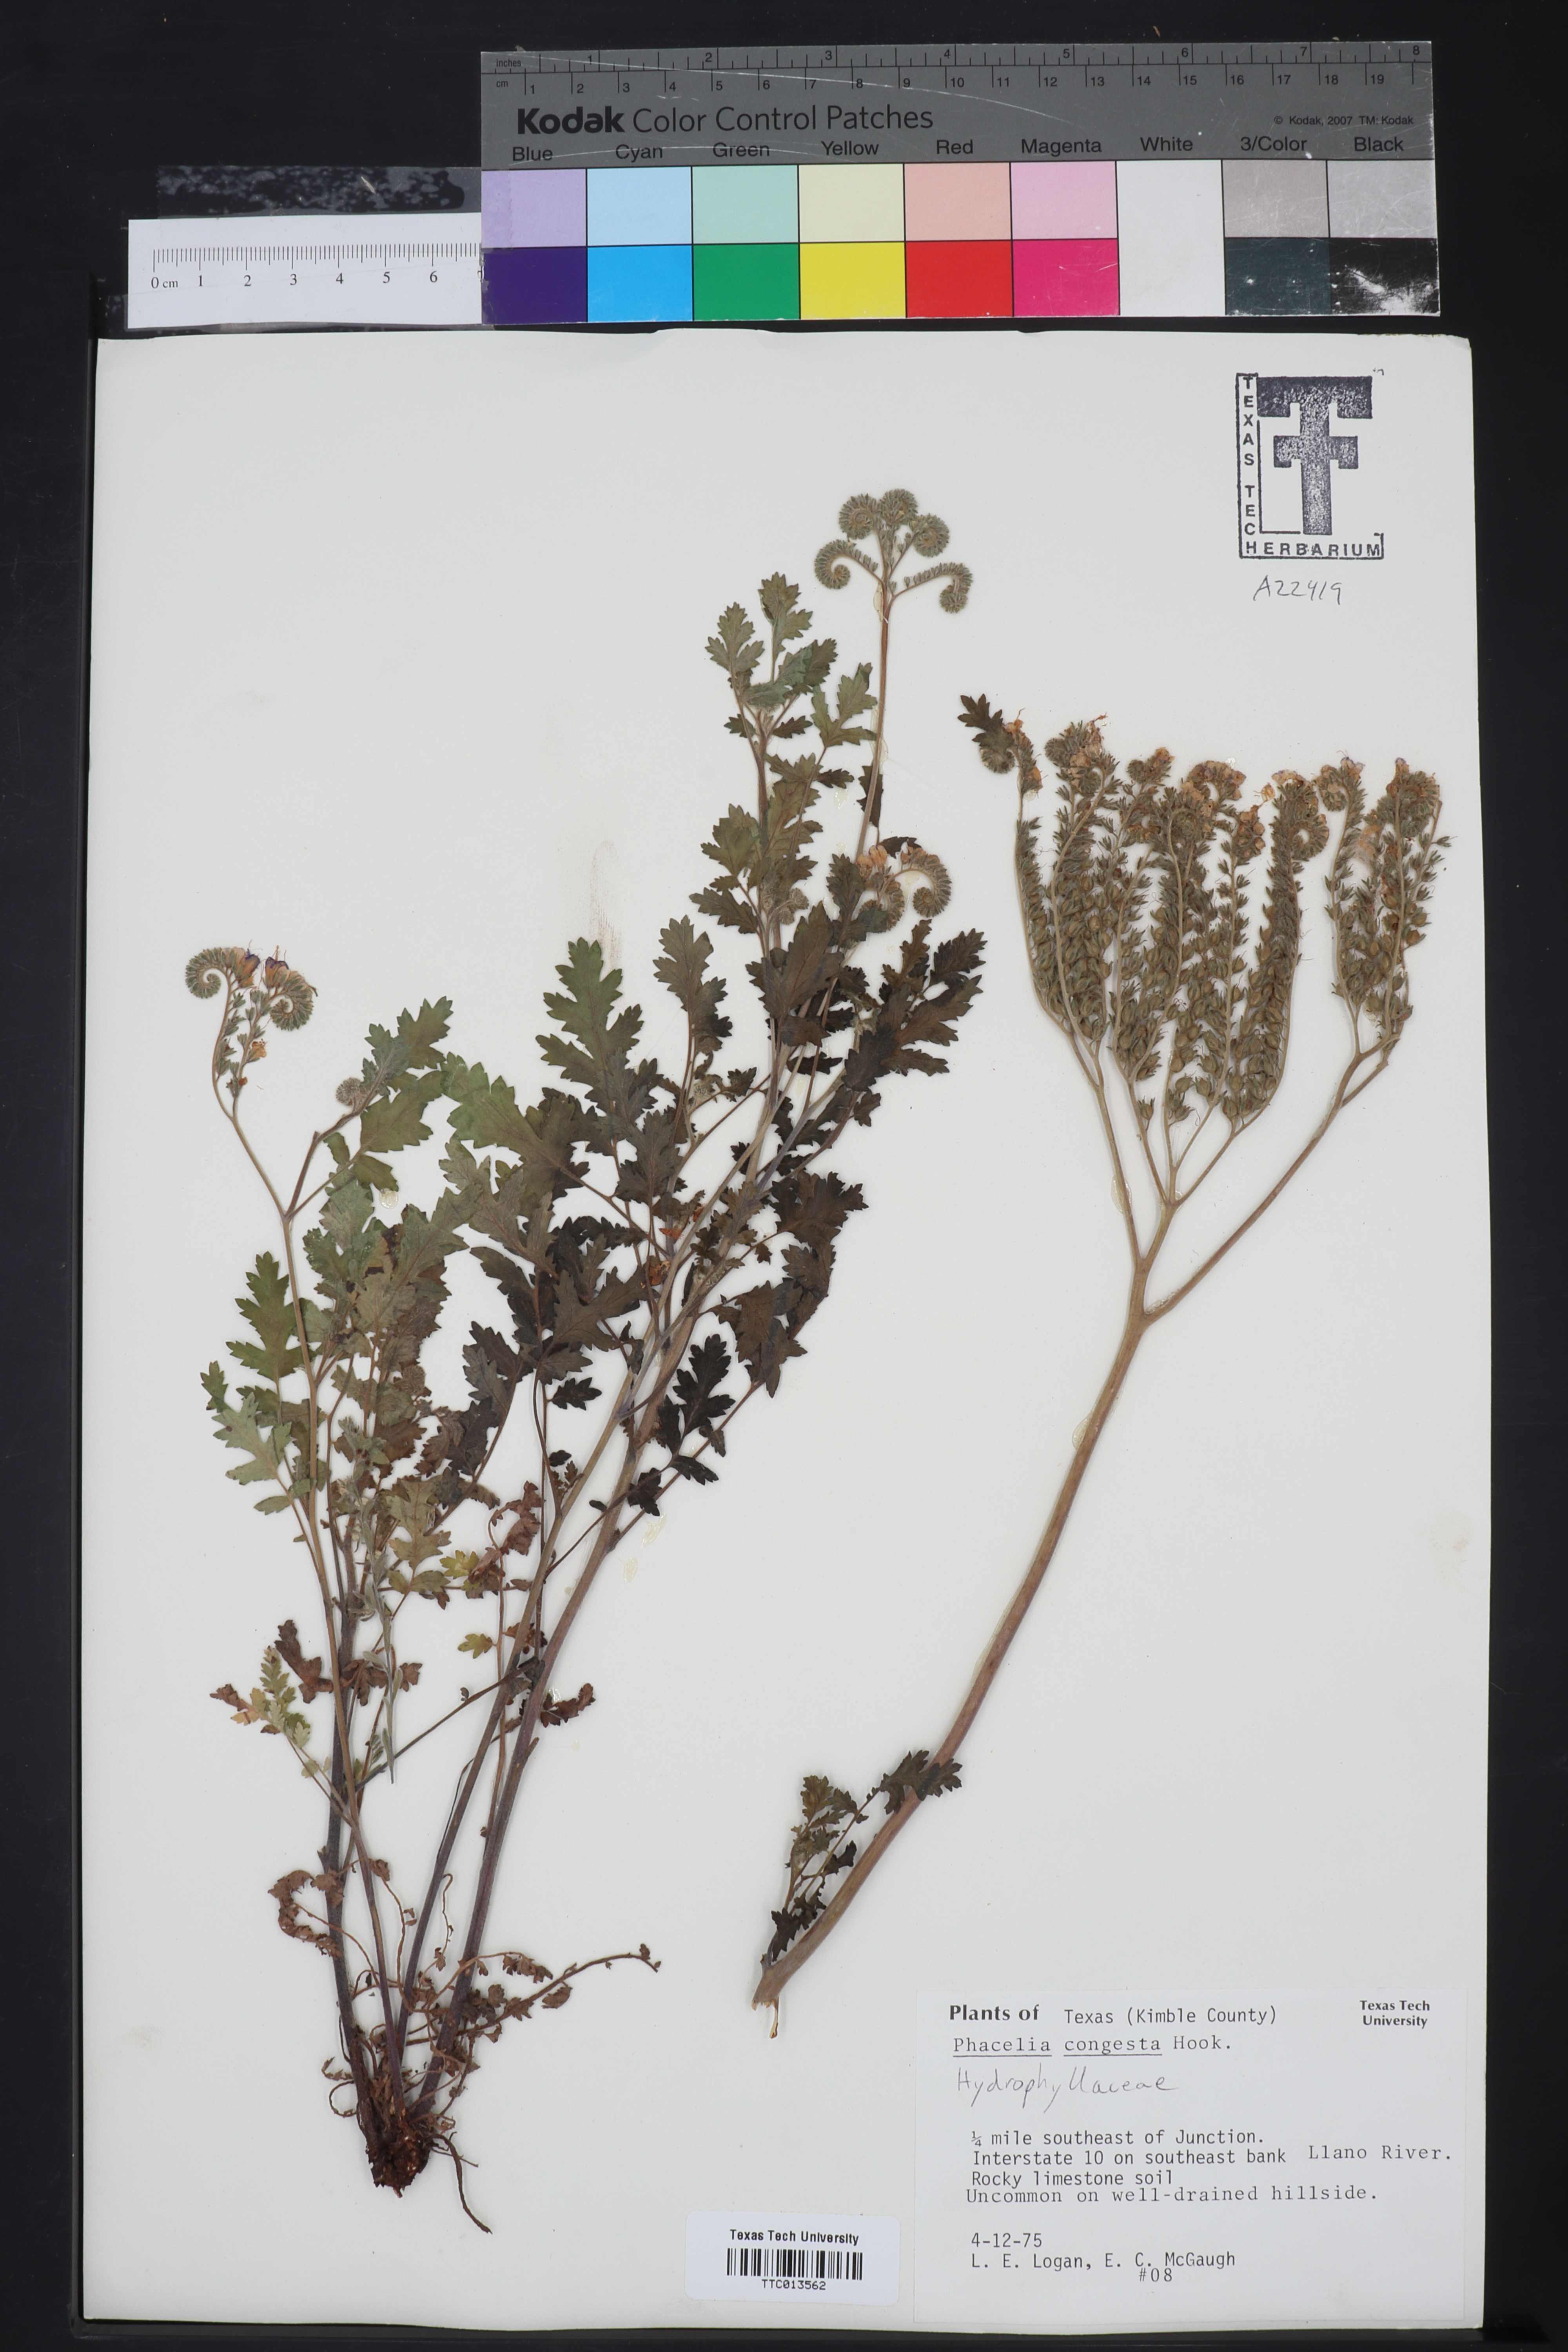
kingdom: Plantae
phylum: Tracheophyta
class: Magnoliopsida
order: Boraginales
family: Hydrophyllaceae
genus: Phacelia
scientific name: Phacelia congesta
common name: Blue curls
